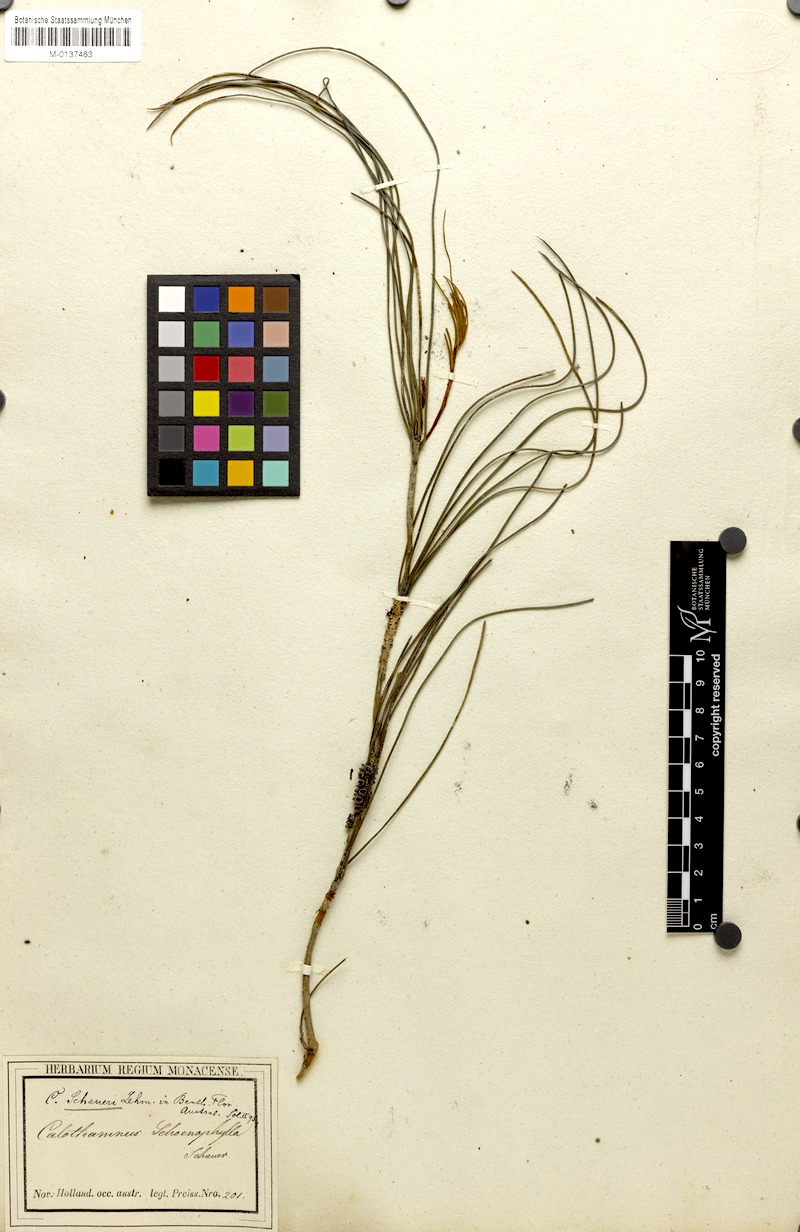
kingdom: Plantae
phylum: Tracheophyta
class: Magnoliopsida
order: Myrtales
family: Myrtaceae
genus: Melaleuca
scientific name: Melaleuca schaueri
